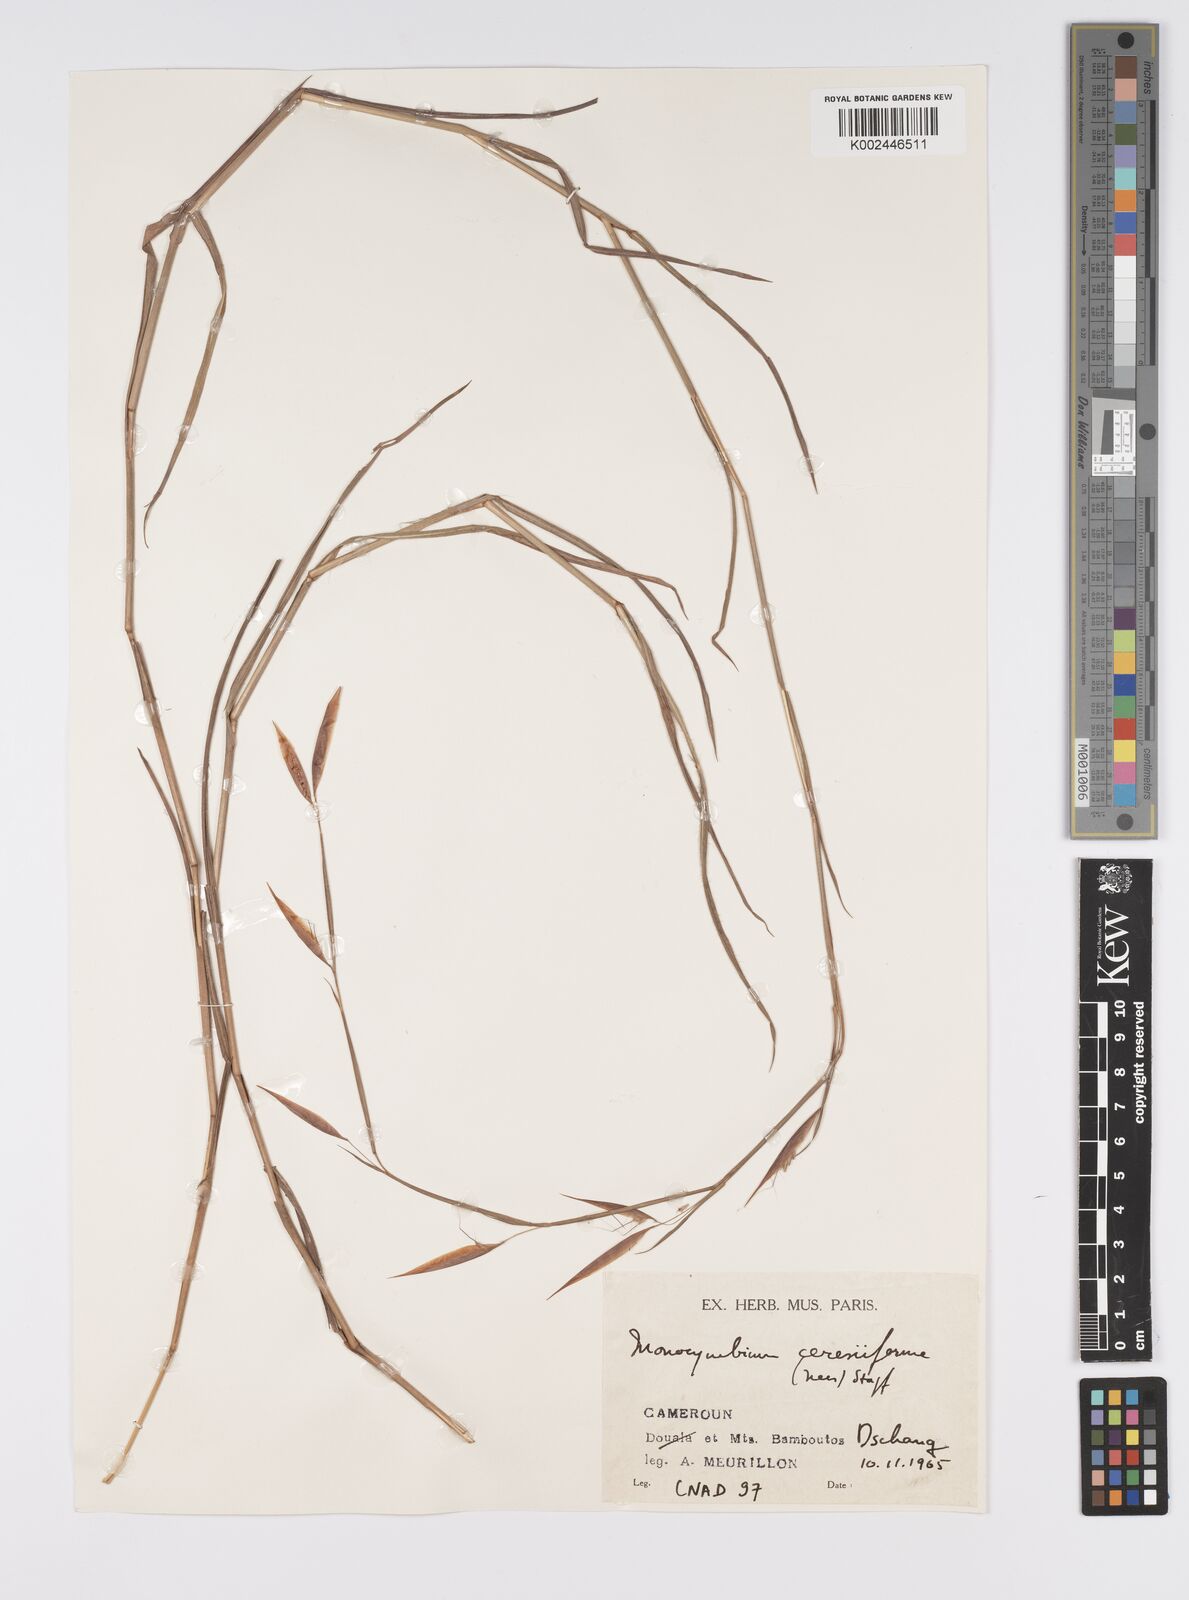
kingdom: Plantae
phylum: Tracheophyta
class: Liliopsida
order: Poales
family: Poaceae
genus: Monocymbium
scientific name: Monocymbium ceresiiforme
